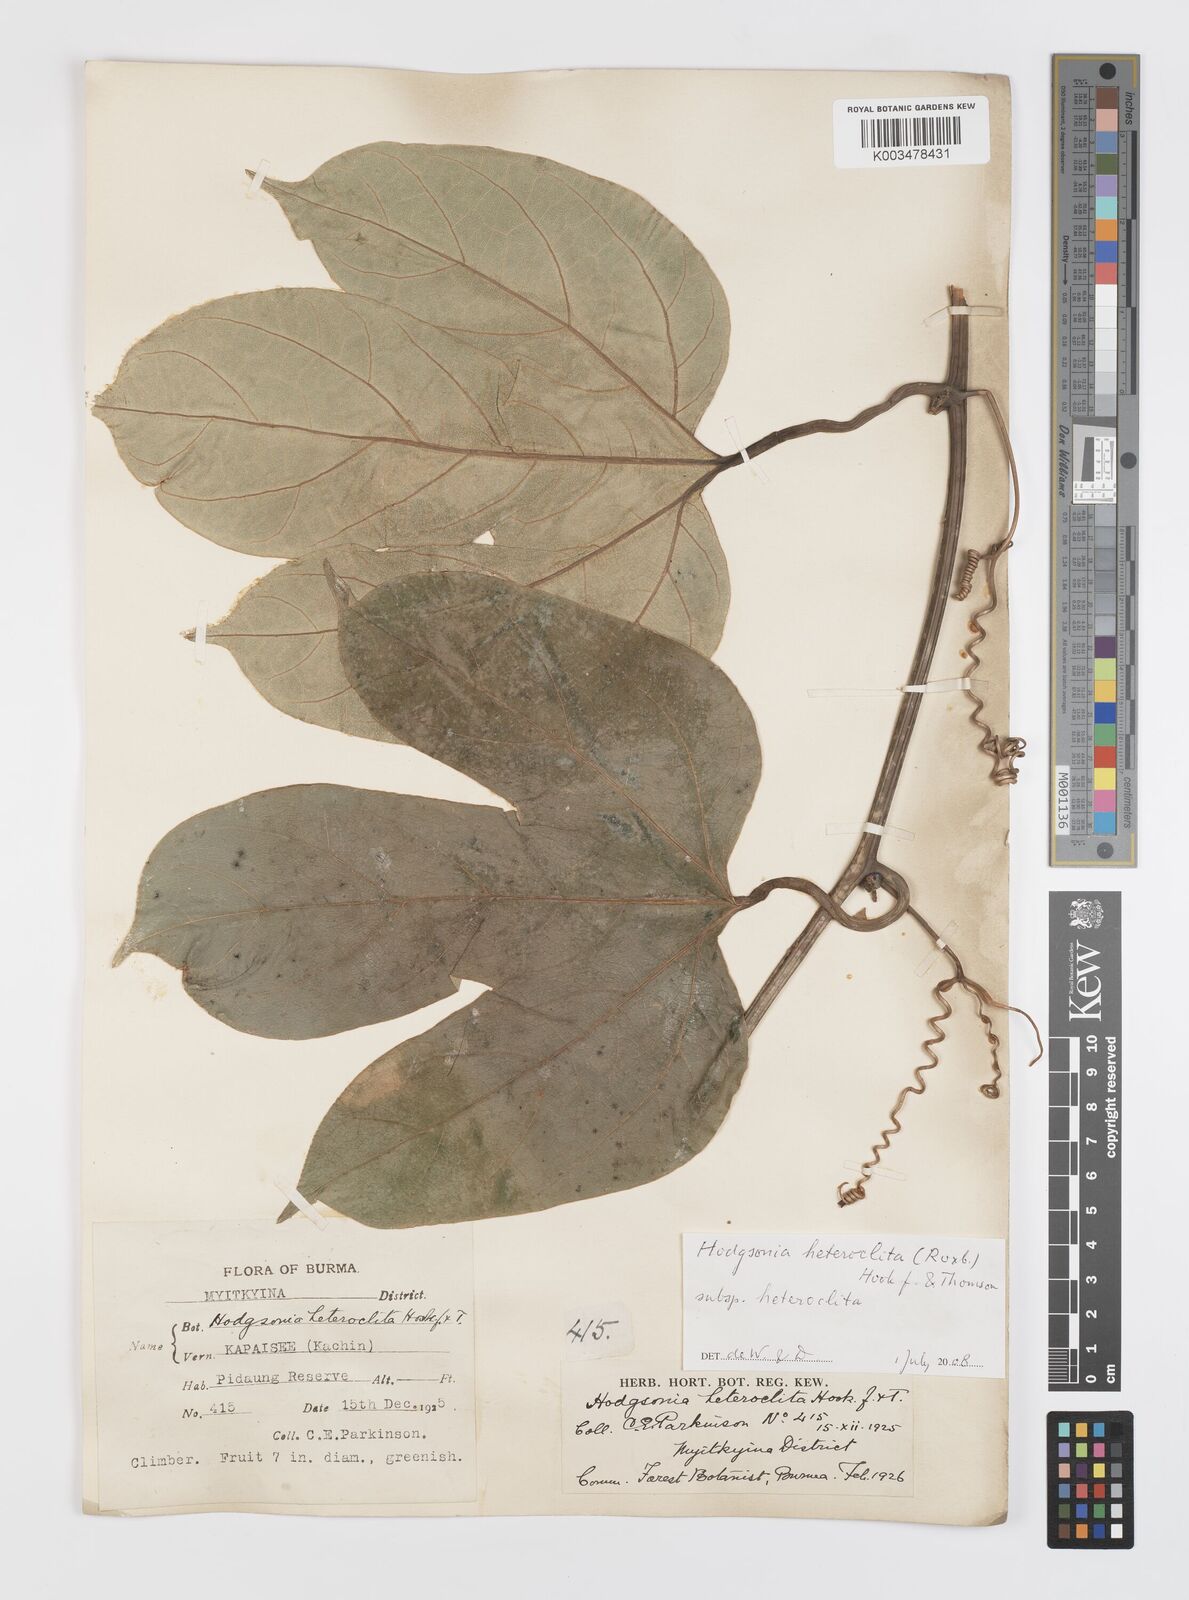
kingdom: Plantae
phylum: Tracheophyta
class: Magnoliopsida
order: Cucurbitales
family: Cucurbitaceae
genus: Hodgsonia
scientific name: Hodgsonia macrocarpa
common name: Chinese lardfruit
